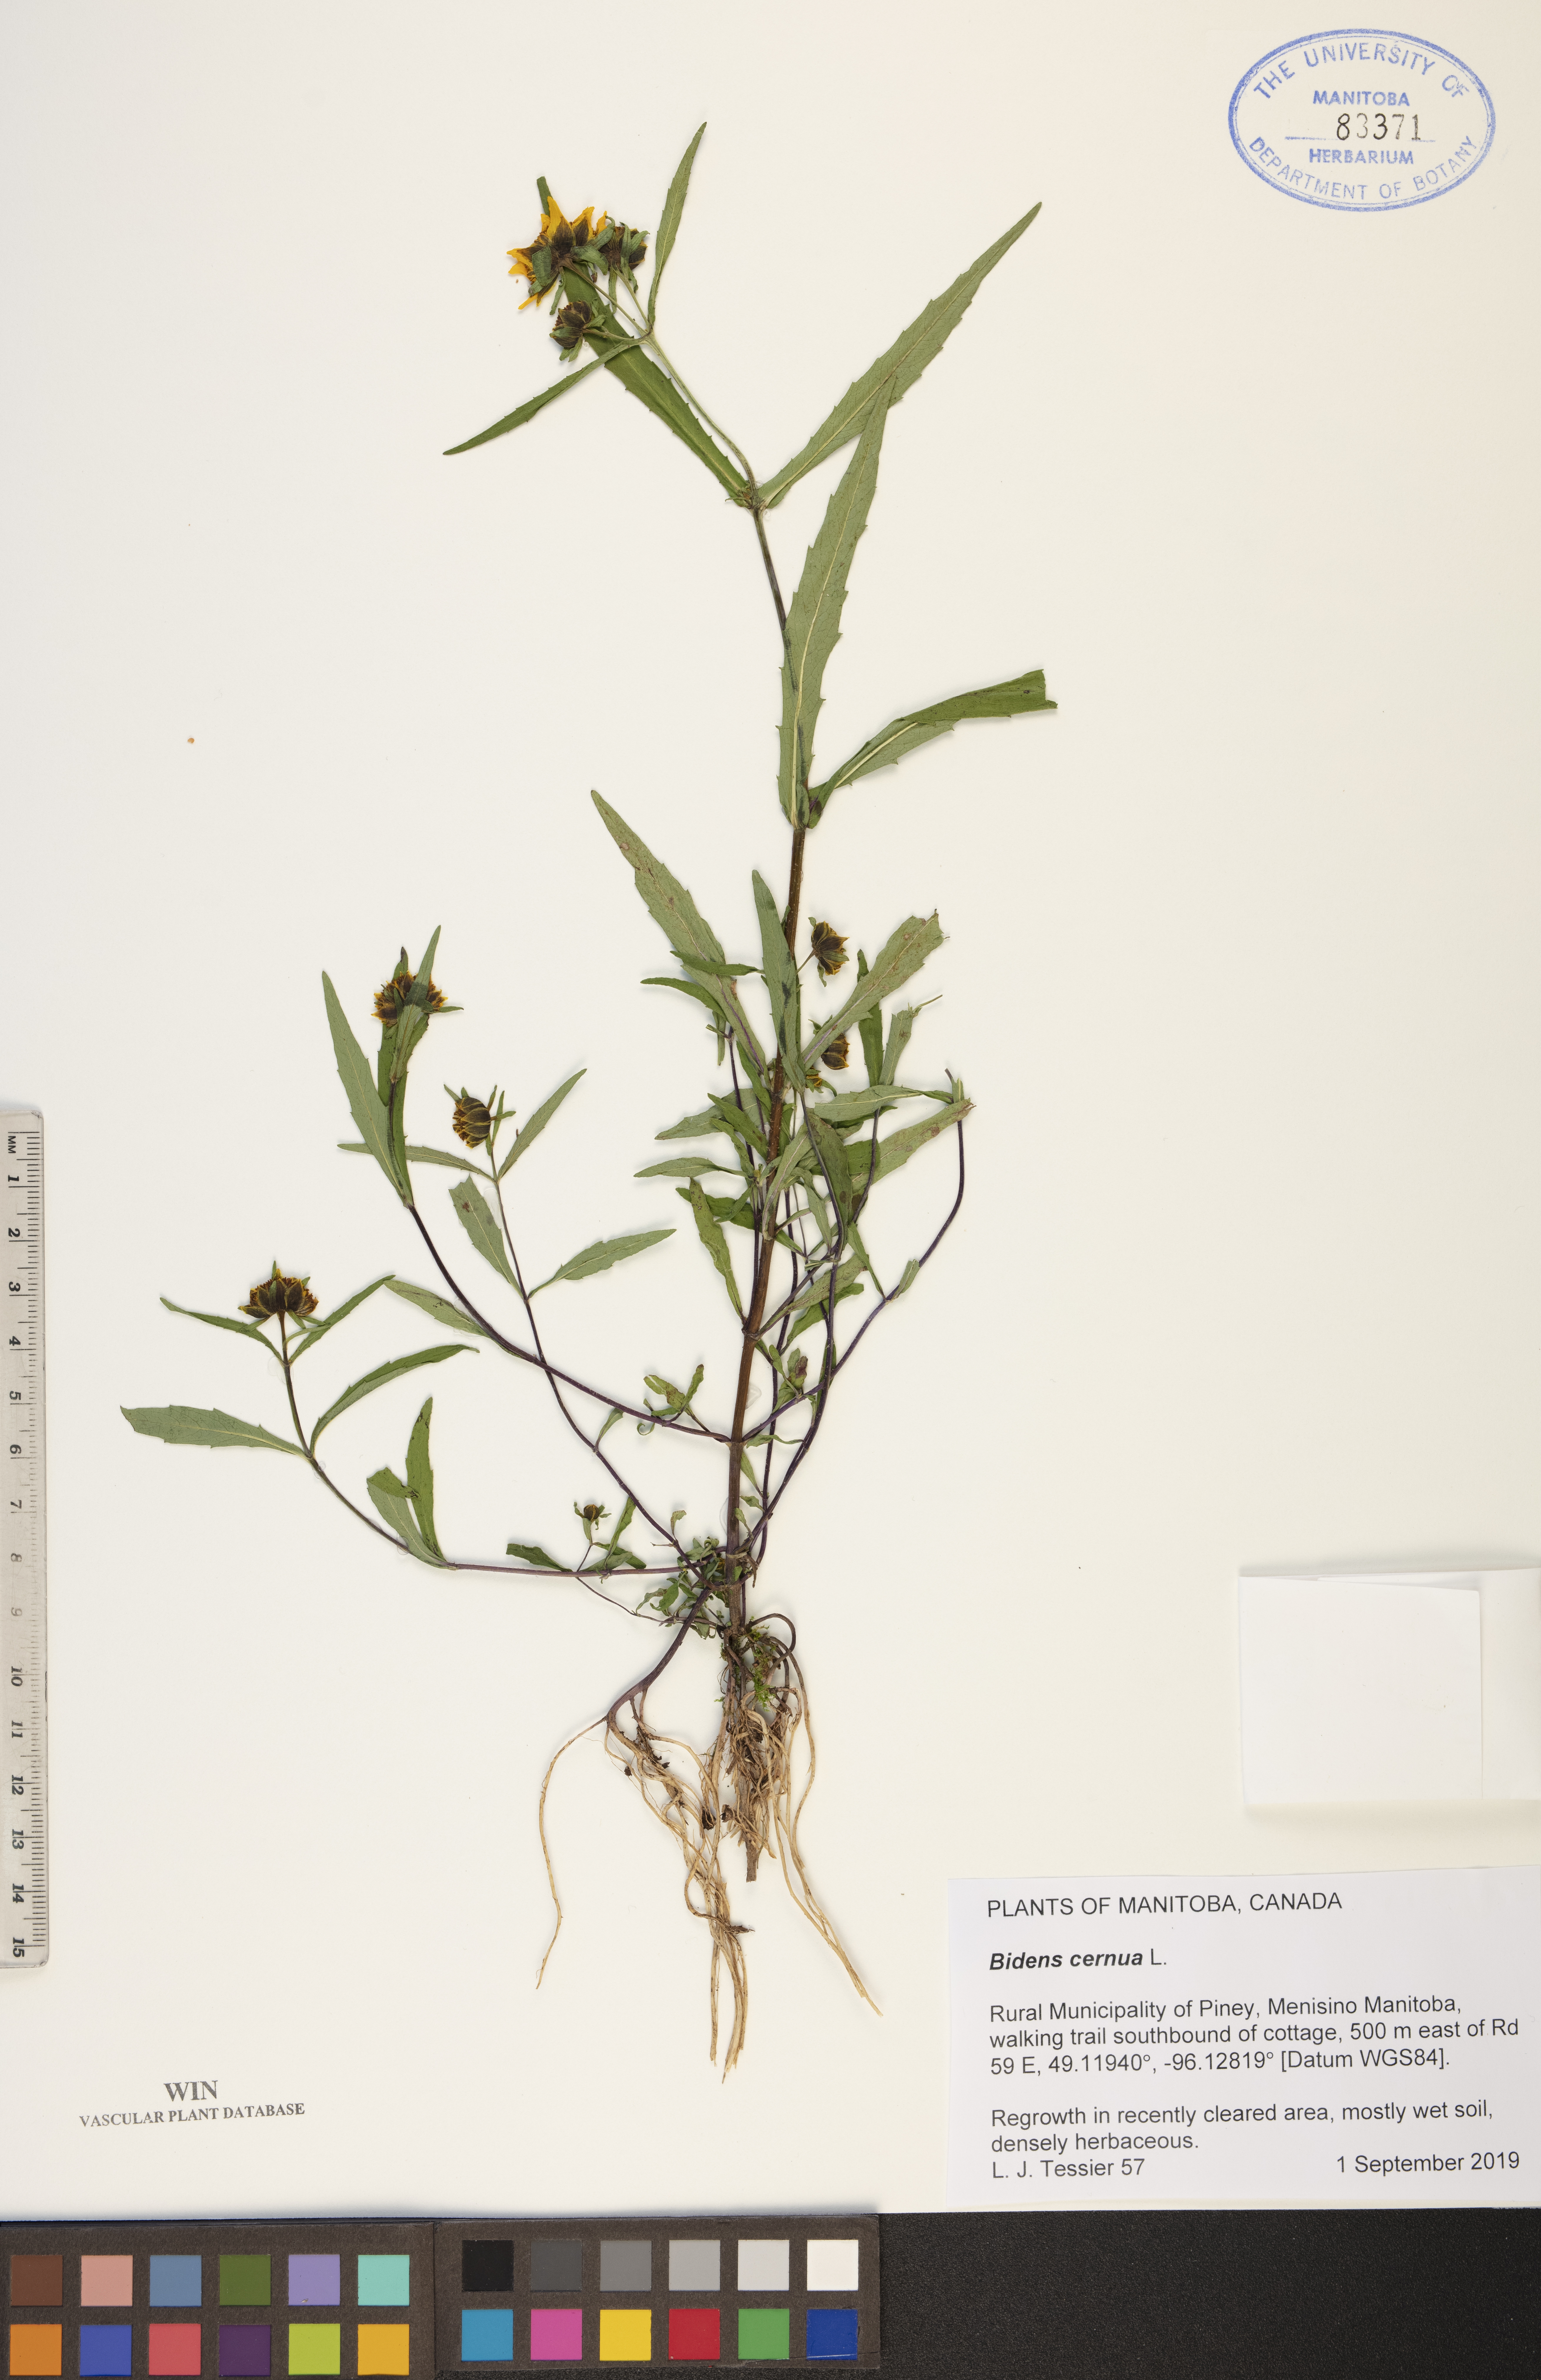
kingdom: Plantae
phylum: Tracheophyta
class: Magnoliopsida
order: Asterales
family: Asteraceae
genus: Bidens
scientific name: Bidens cernua
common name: Nodding bur-marigold
